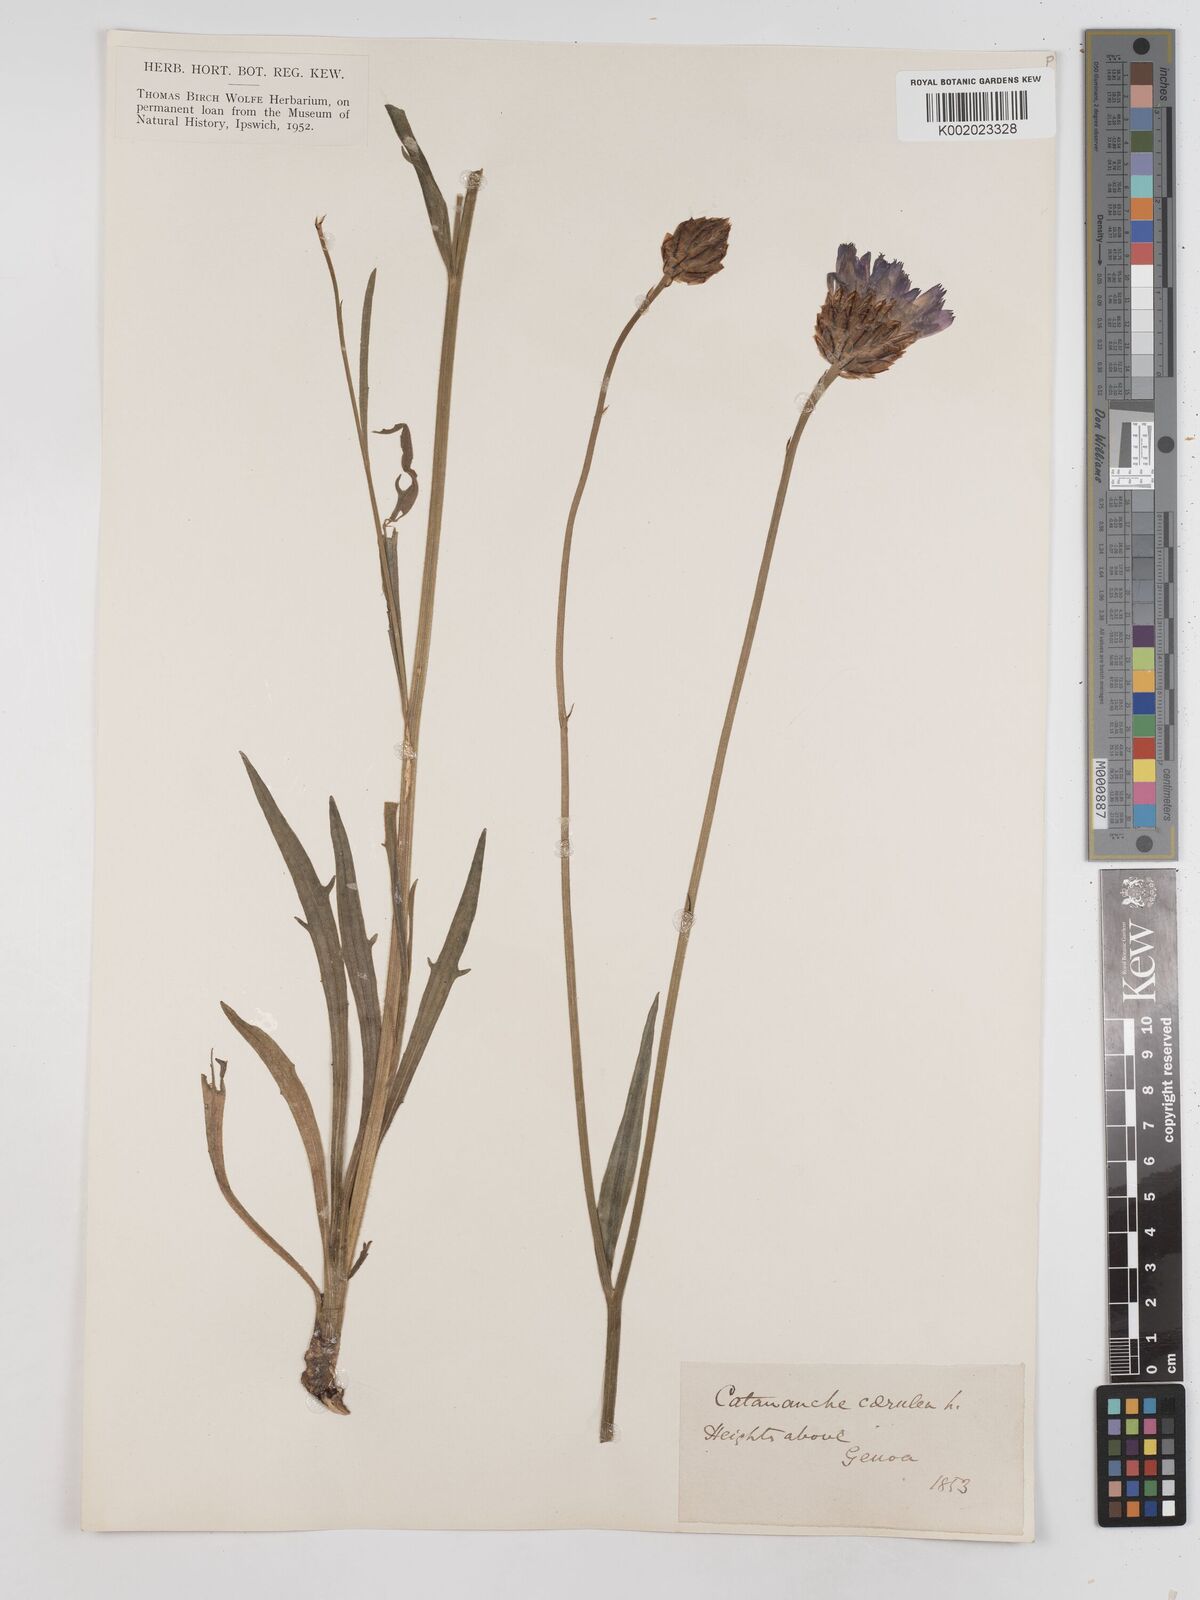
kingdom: Plantae
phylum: Tracheophyta
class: Magnoliopsida
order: Asterales
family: Asteraceae
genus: Catananche
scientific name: Catananche caerulea
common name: Blue cupidone
